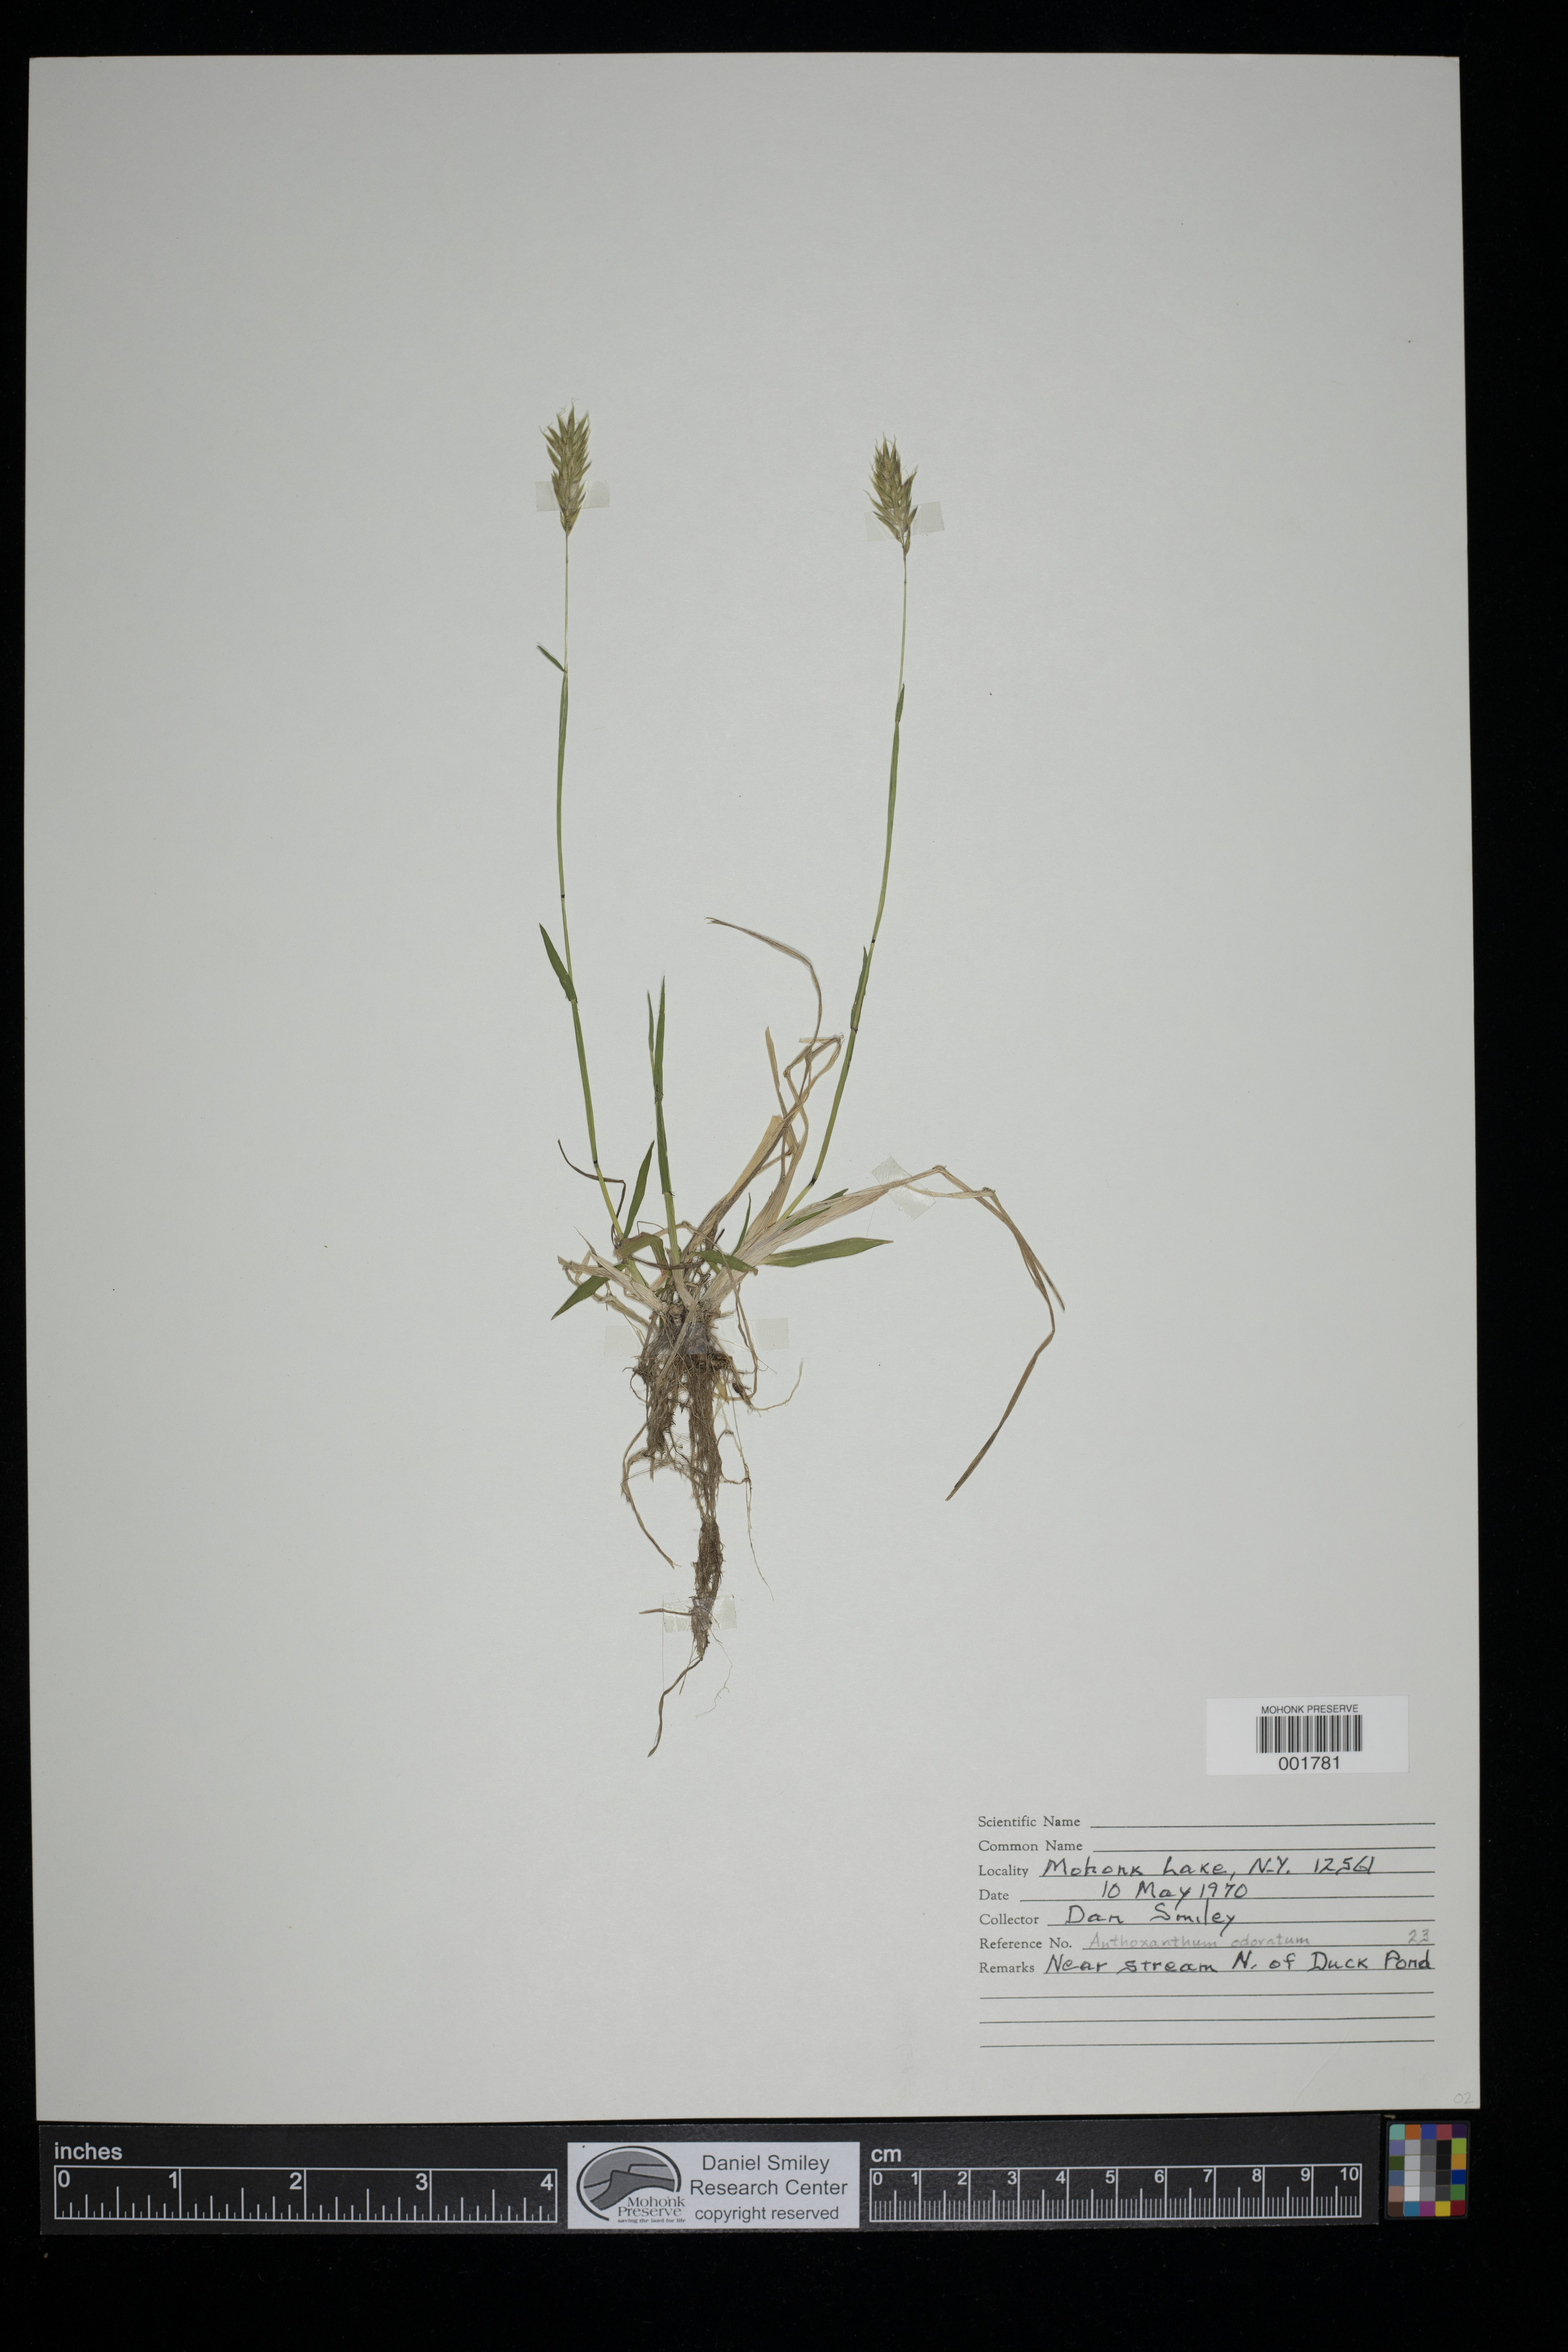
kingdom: Plantae
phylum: Tracheophyta
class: Liliopsida
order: Poales
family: Poaceae
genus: Anthoxanthum
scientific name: Anthoxanthum odoratum
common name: Sweet vernalgrass
